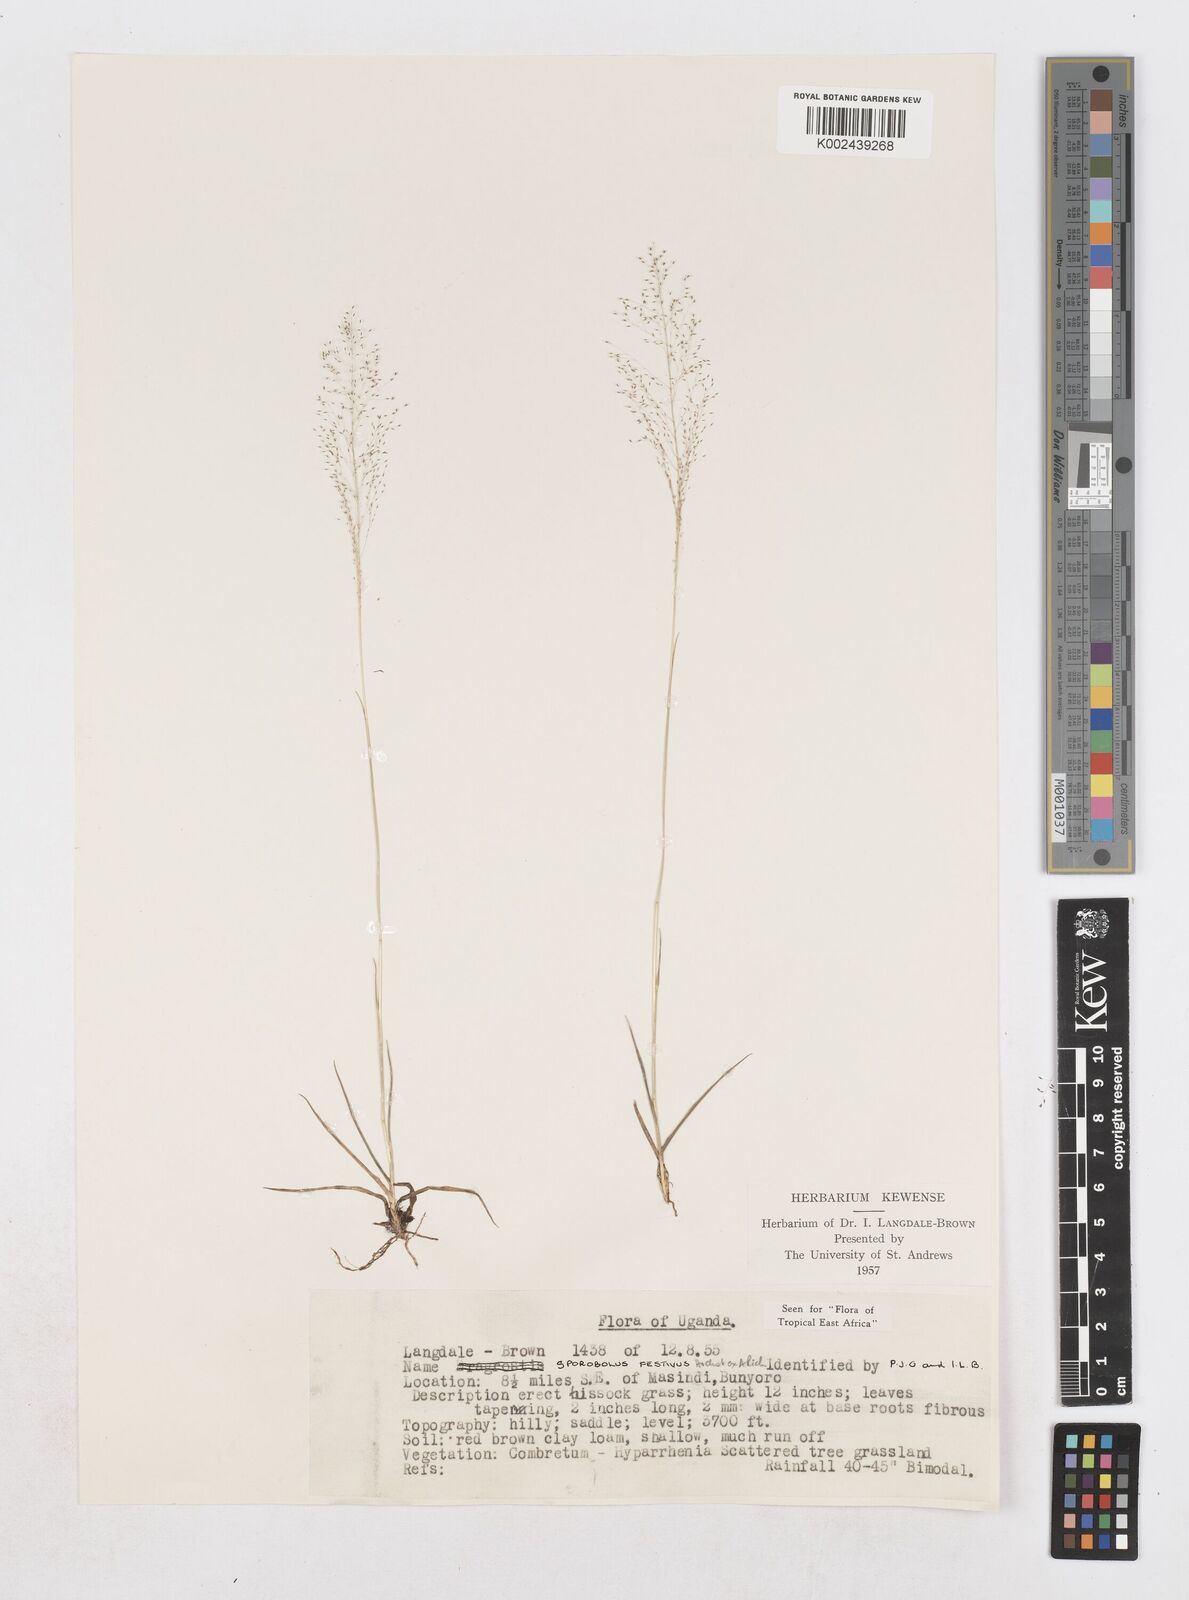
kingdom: Plantae
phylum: Tracheophyta
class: Liliopsida
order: Poales
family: Poaceae
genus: Sporobolus
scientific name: Sporobolus festivus
